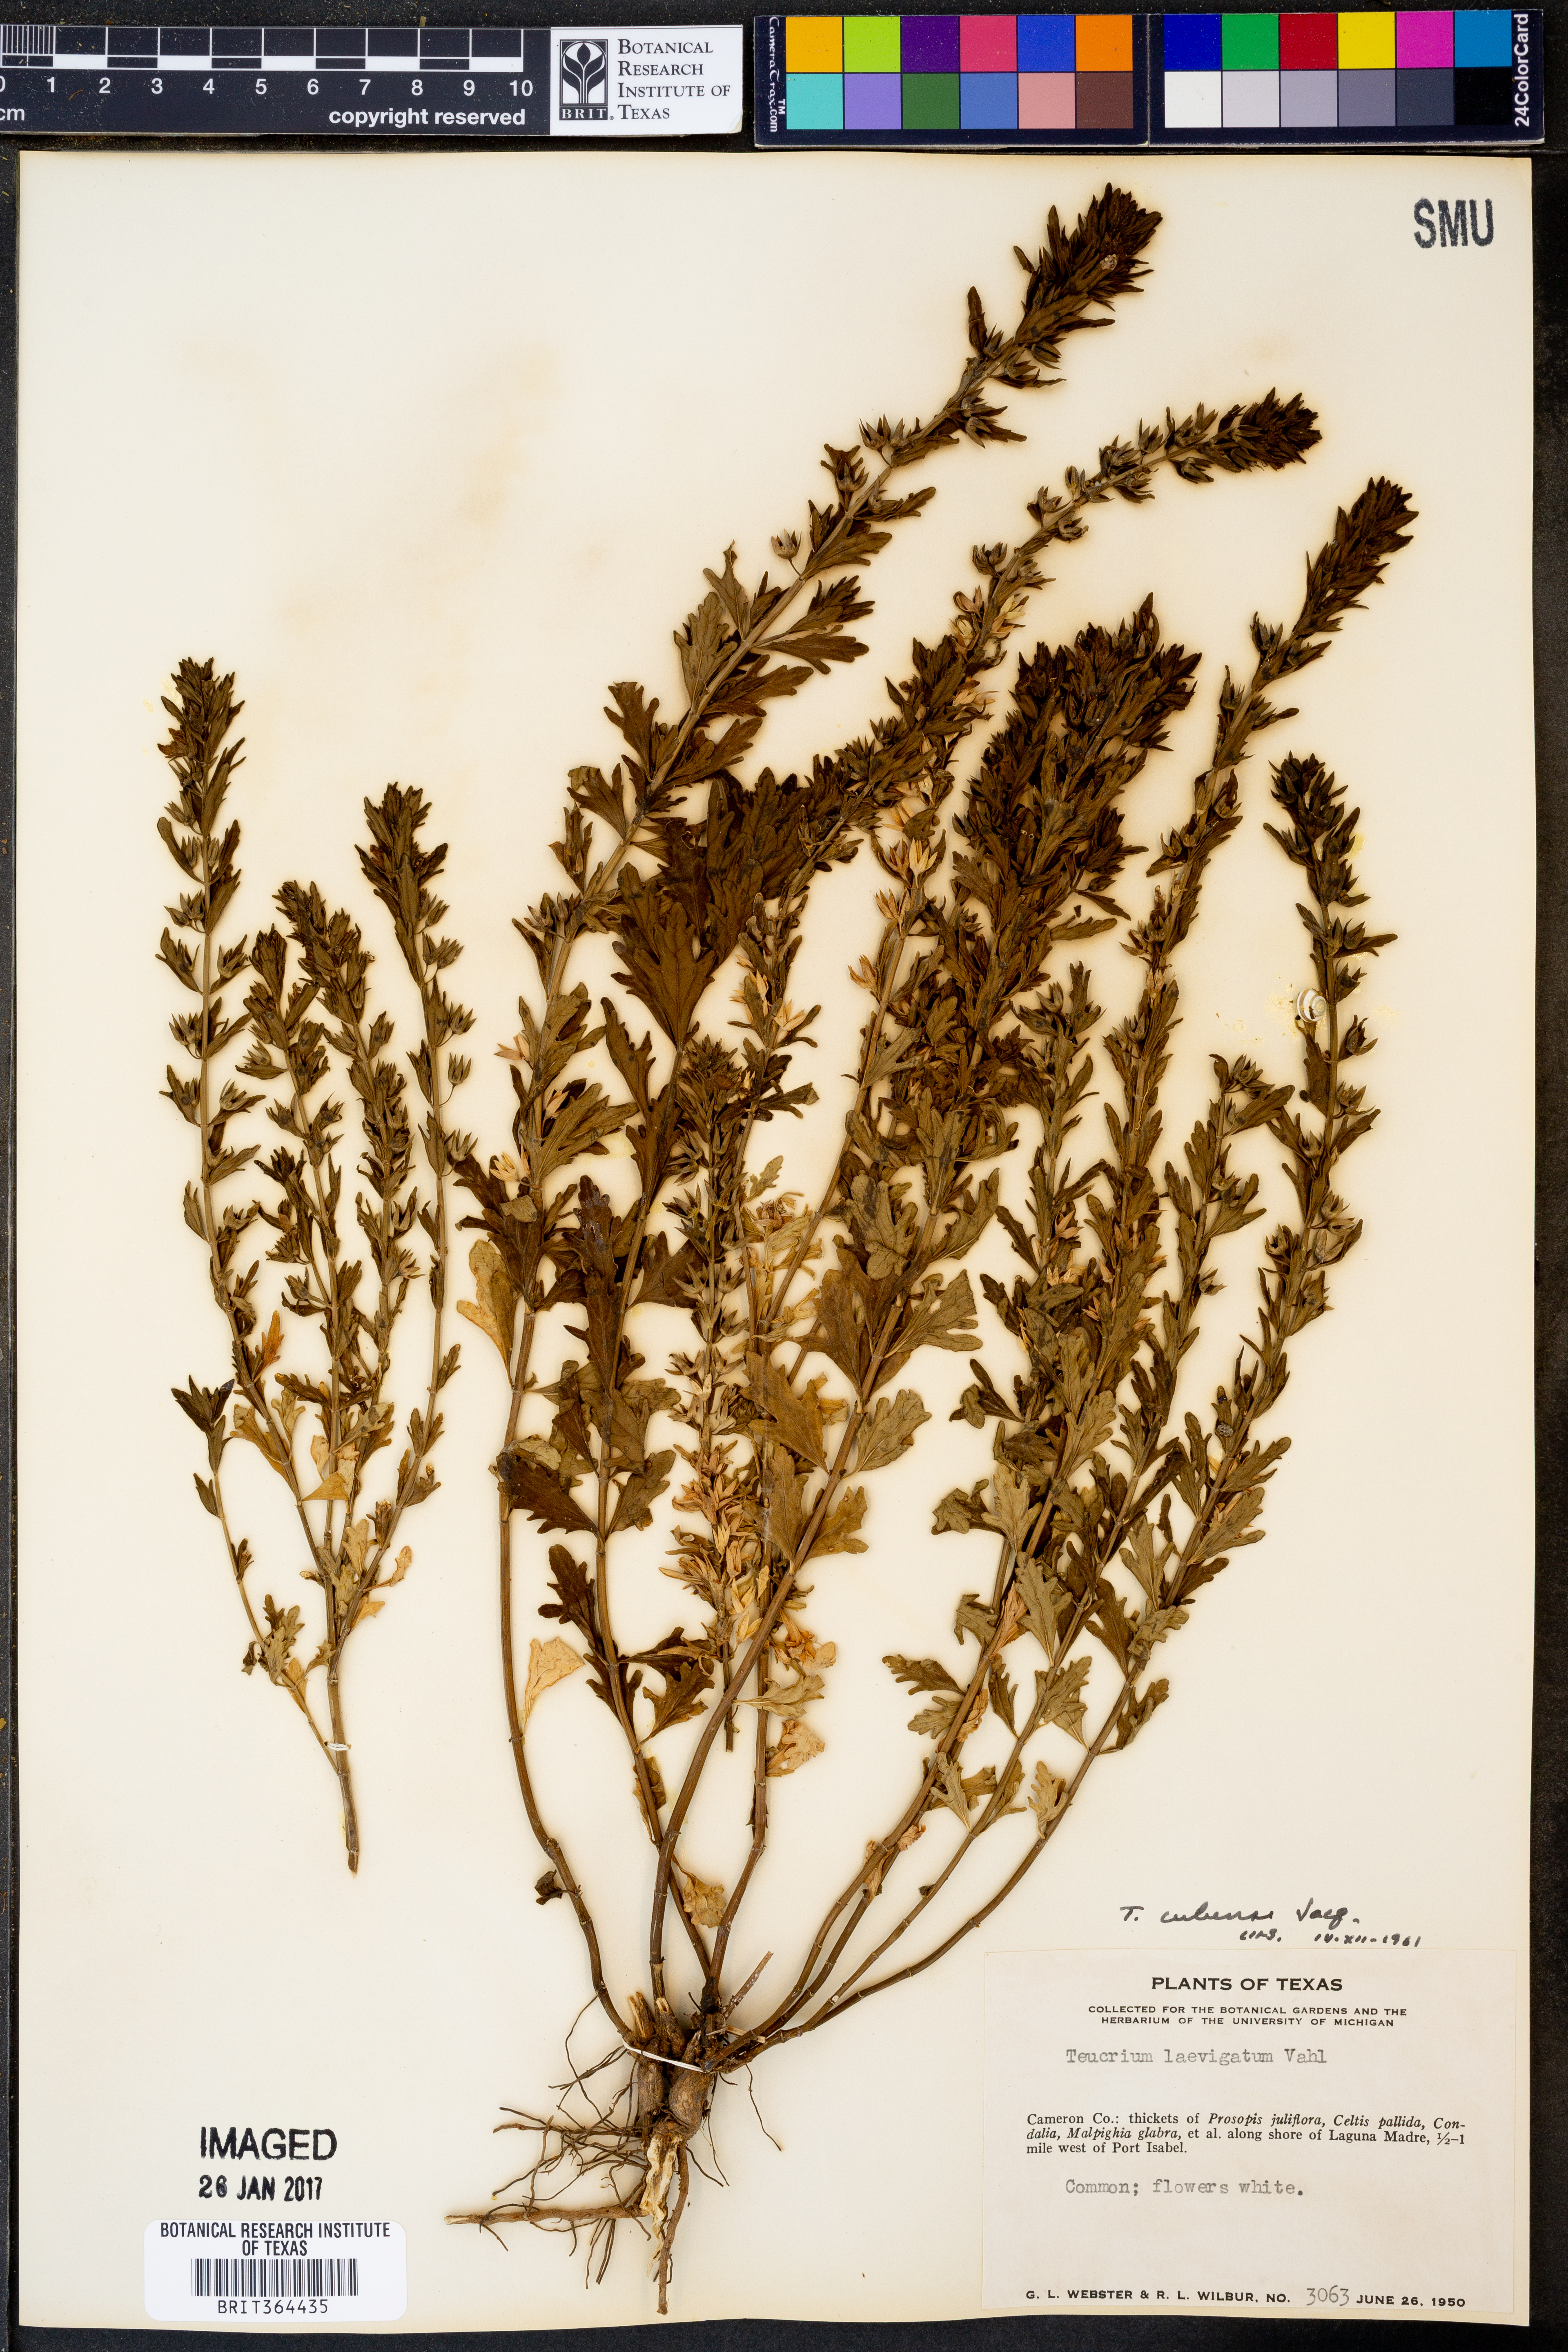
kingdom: Plantae
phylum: Tracheophyta
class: Magnoliopsida
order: Lamiales
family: Lamiaceae
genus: Teucrium
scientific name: Teucrium cubense
